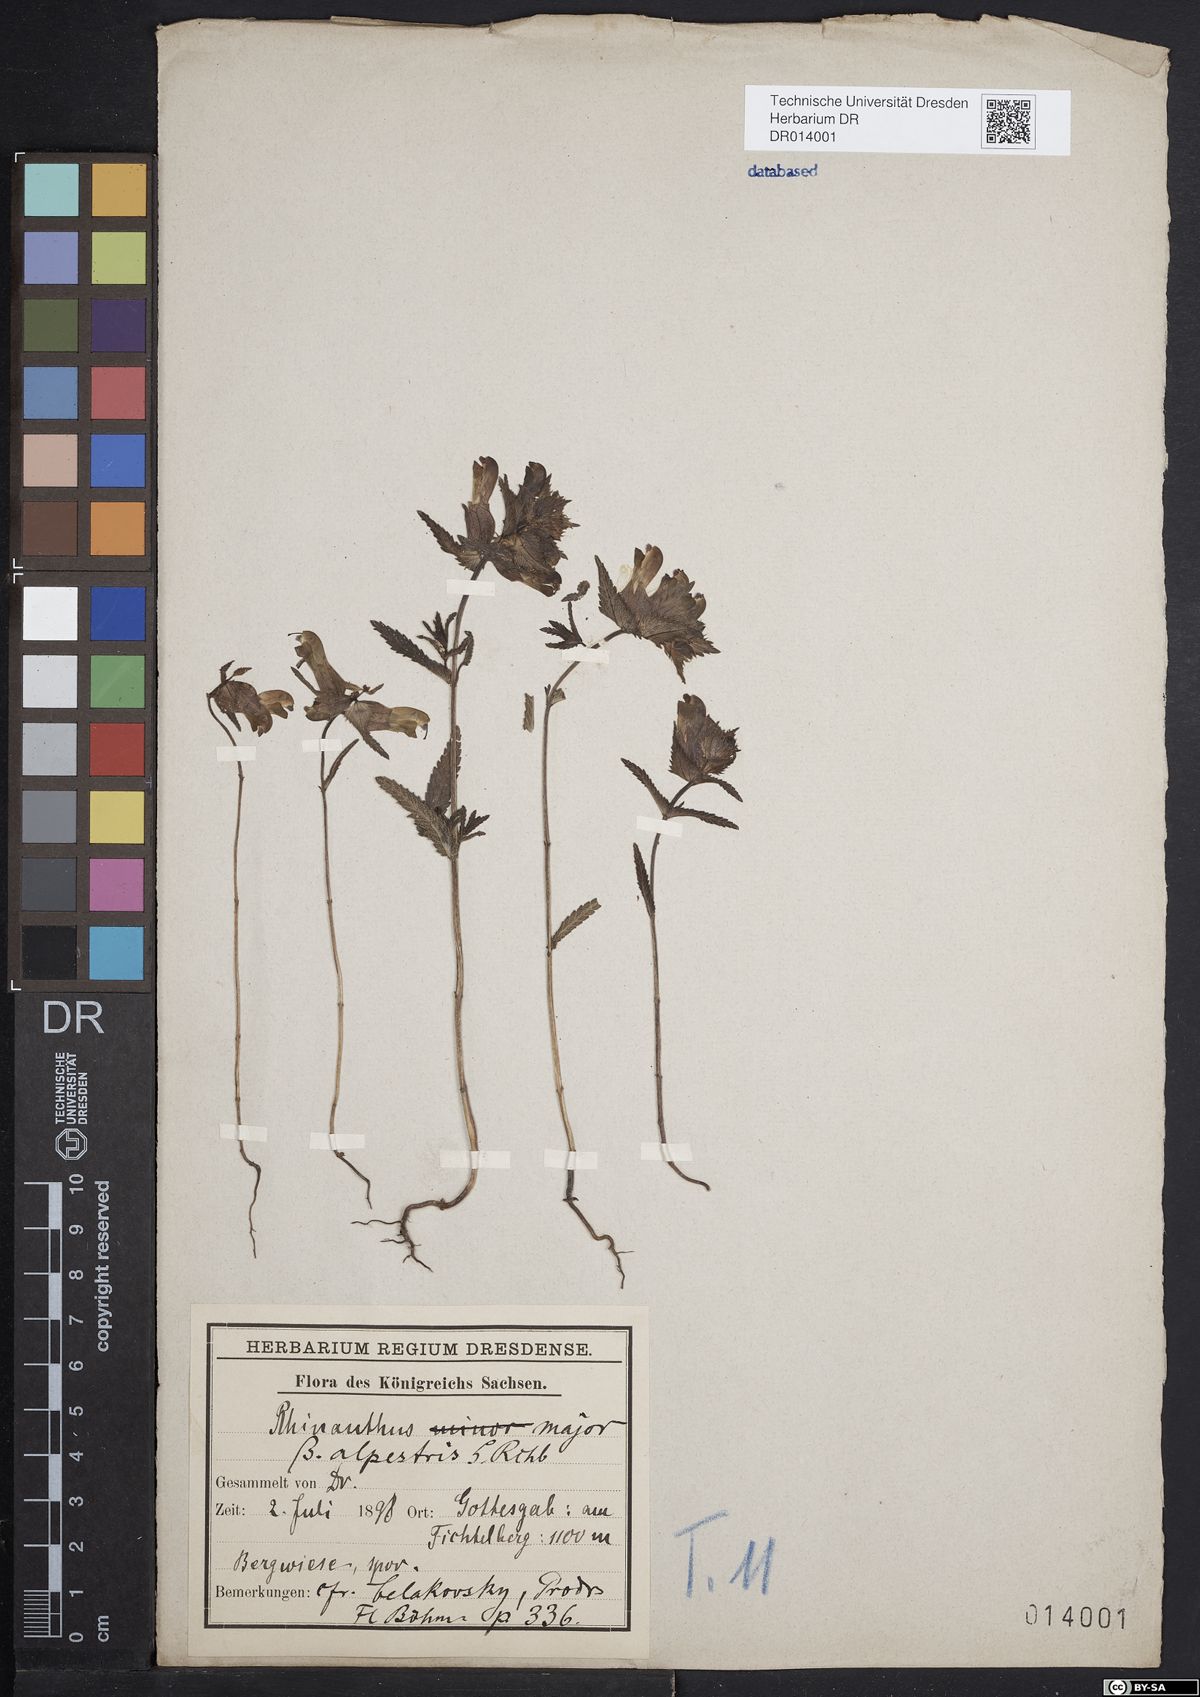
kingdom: Plantae
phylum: Tracheophyta
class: Magnoliopsida
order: Lamiales
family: Orobanchaceae
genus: Rhinanthus
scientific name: Rhinanthus serotinus
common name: Late-flowering yellow rattle
